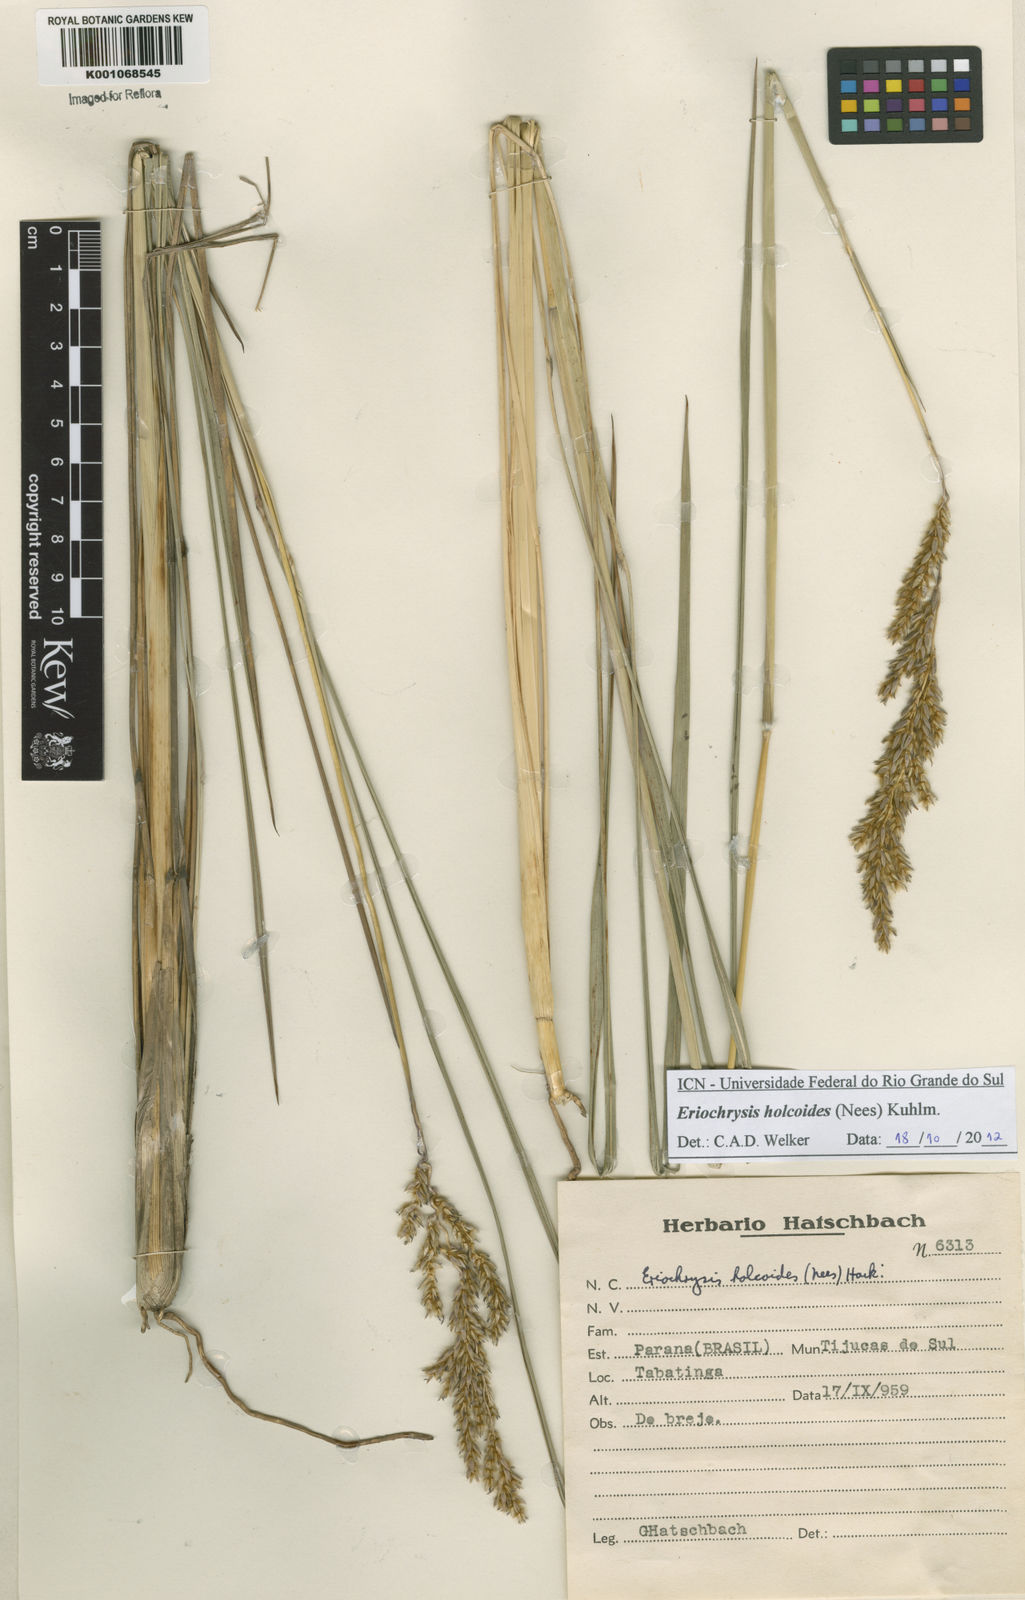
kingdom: Plantae
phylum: Tracheophyta
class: Liliopsida
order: Poales
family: Poaceae
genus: Eriochrysis
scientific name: Eriochrysis holcoides
